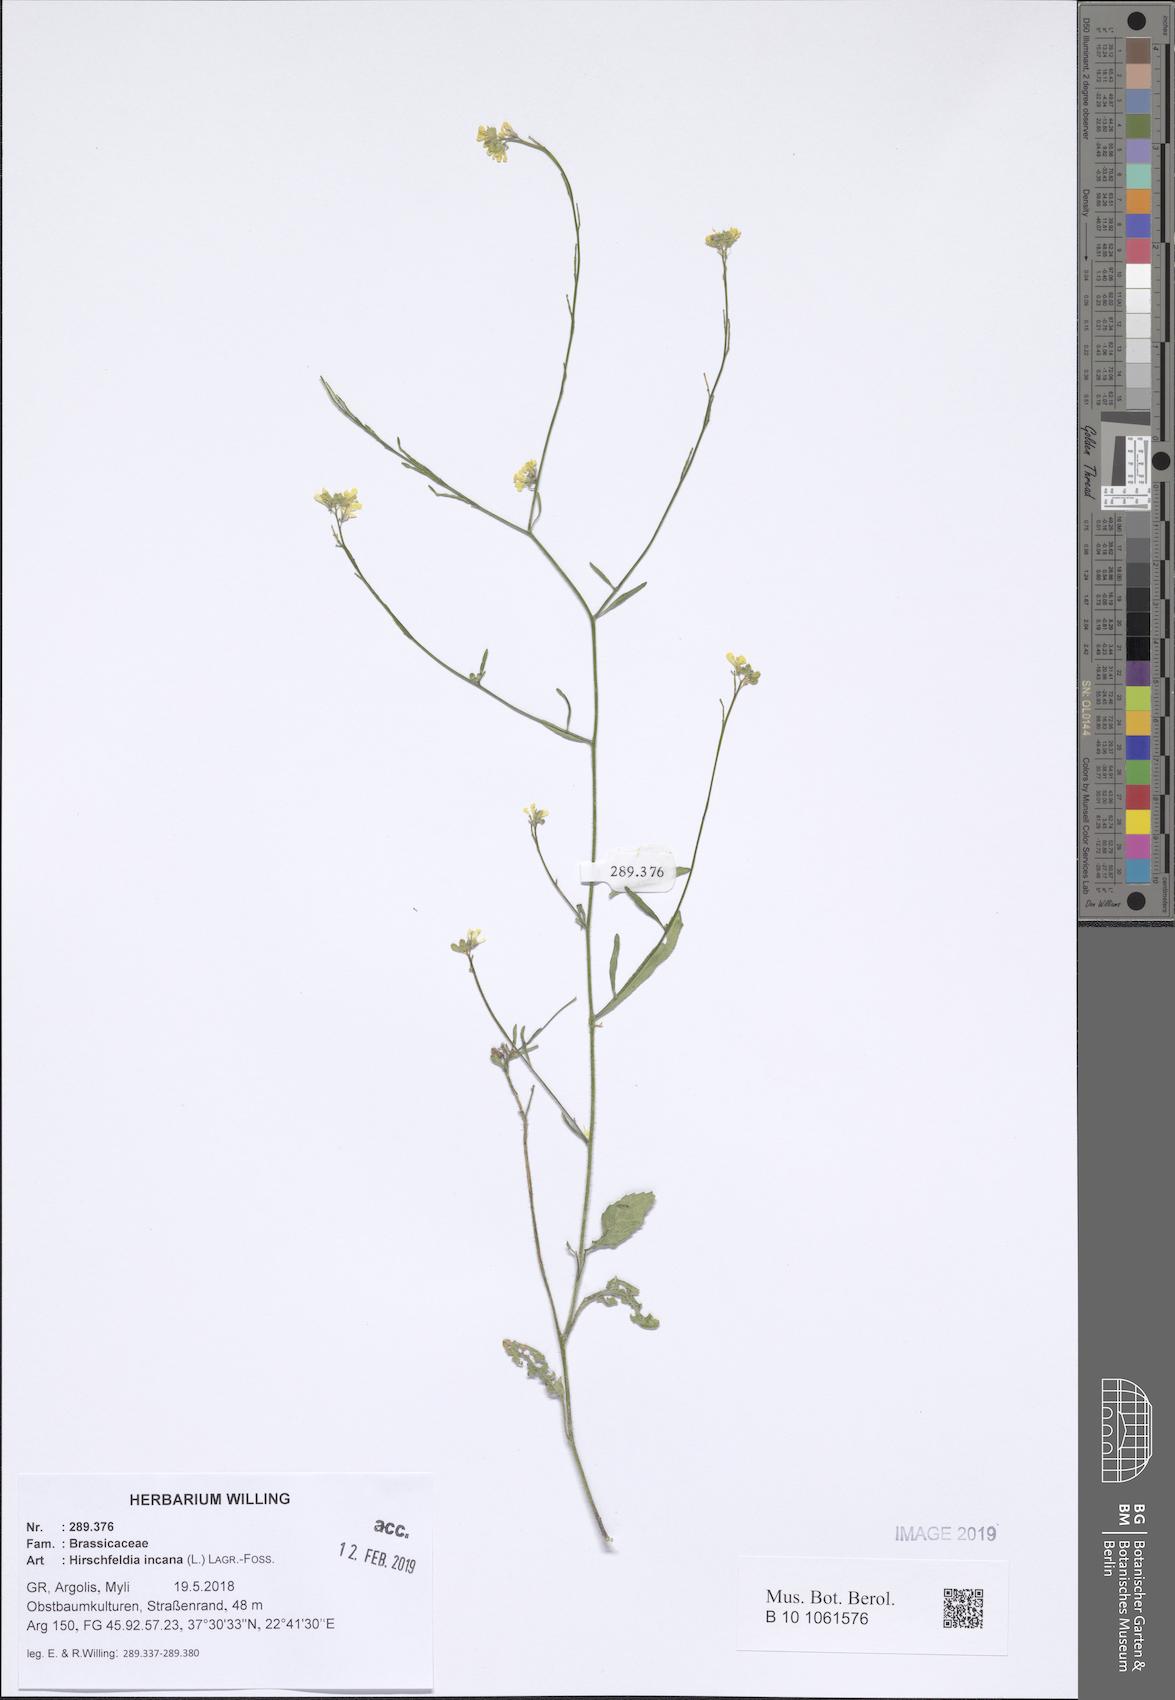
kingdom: Plantae
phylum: Tracheophyta
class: Magnoliopsida
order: Brassicales
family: Brassicaceae
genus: Hirschfeldia
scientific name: Hirschfeldia incana
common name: Hoary mustard
